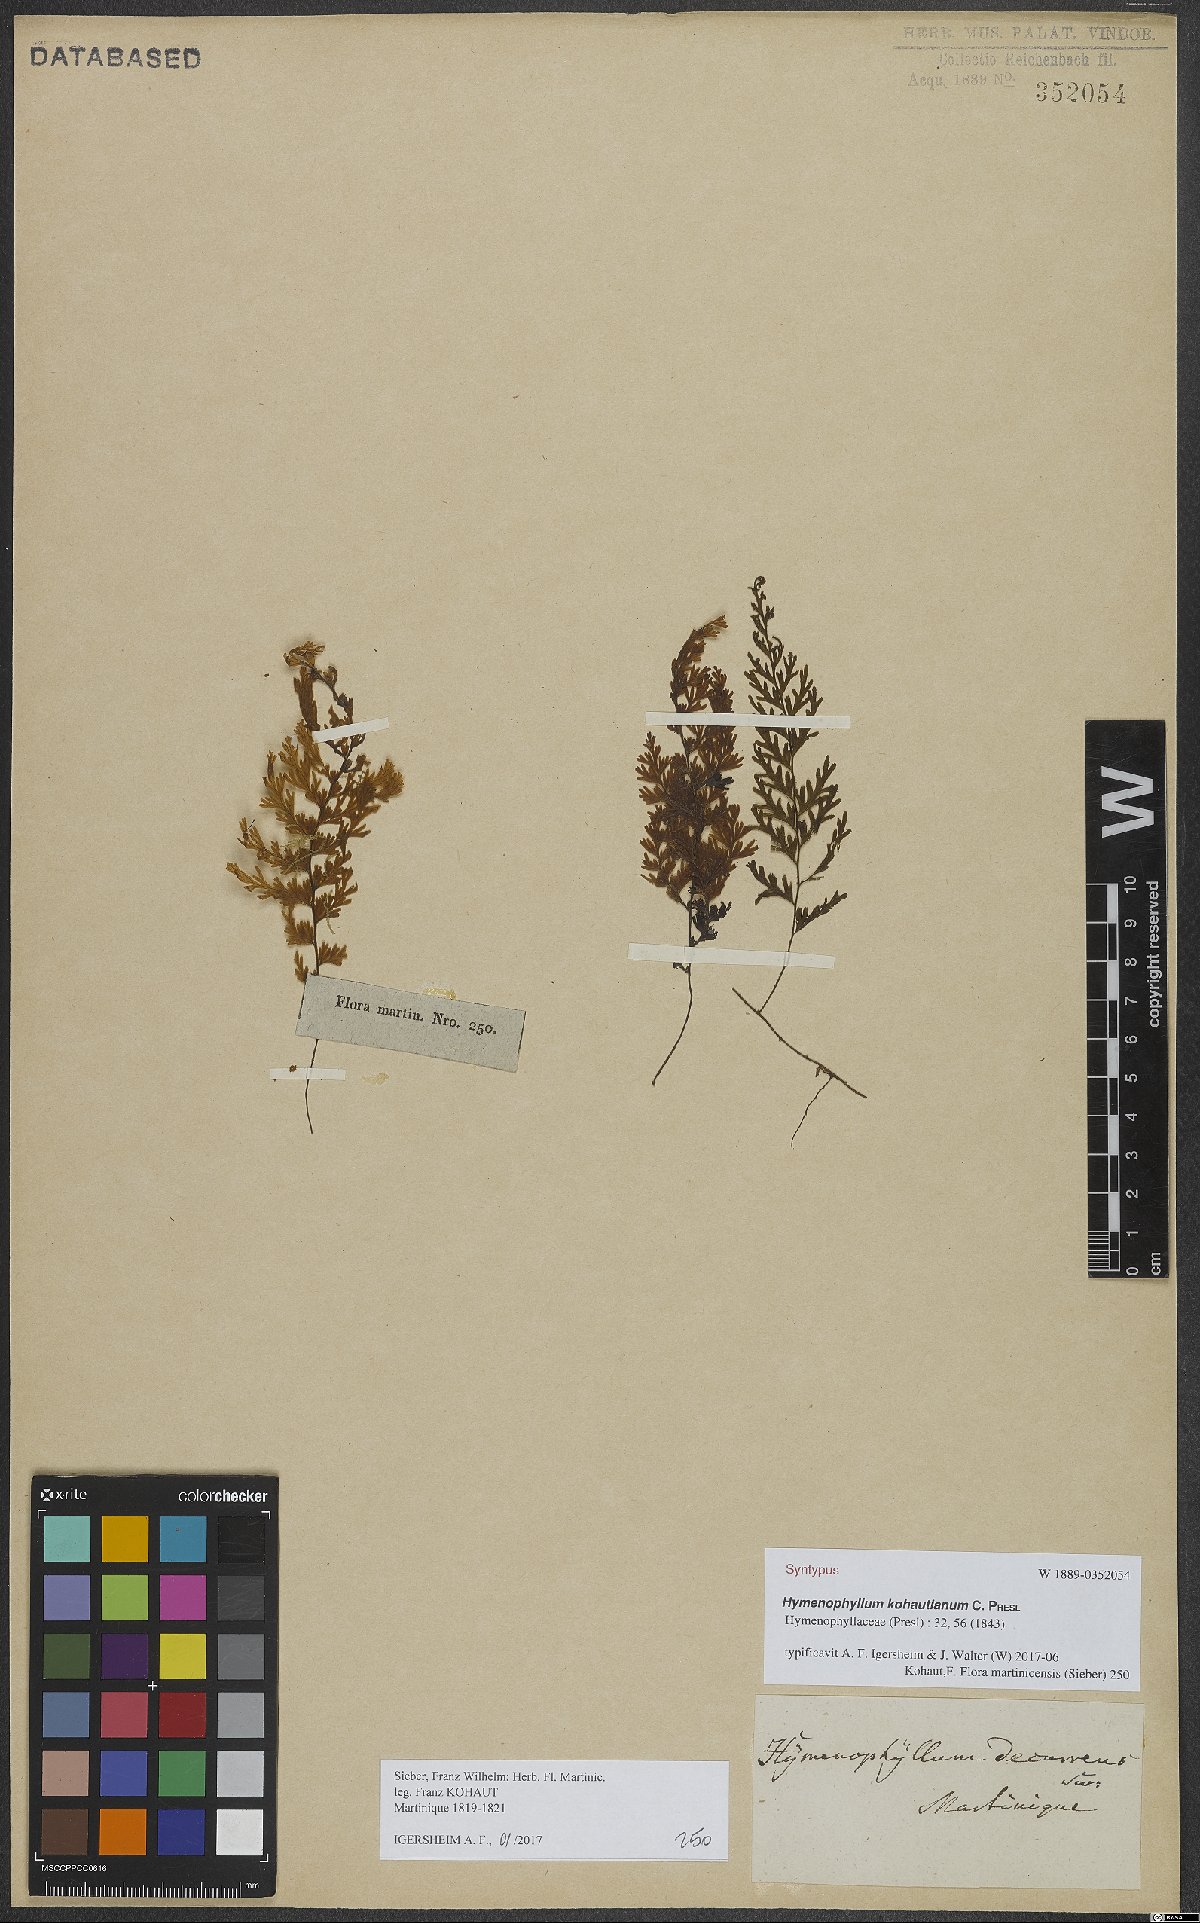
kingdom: Plantae
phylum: Tracheophyta
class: Polypodiopsida
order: Hymenophyllales
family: Hymenophyllaceae
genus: Hymenophyllum
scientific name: Hymenophyllum protrusum
